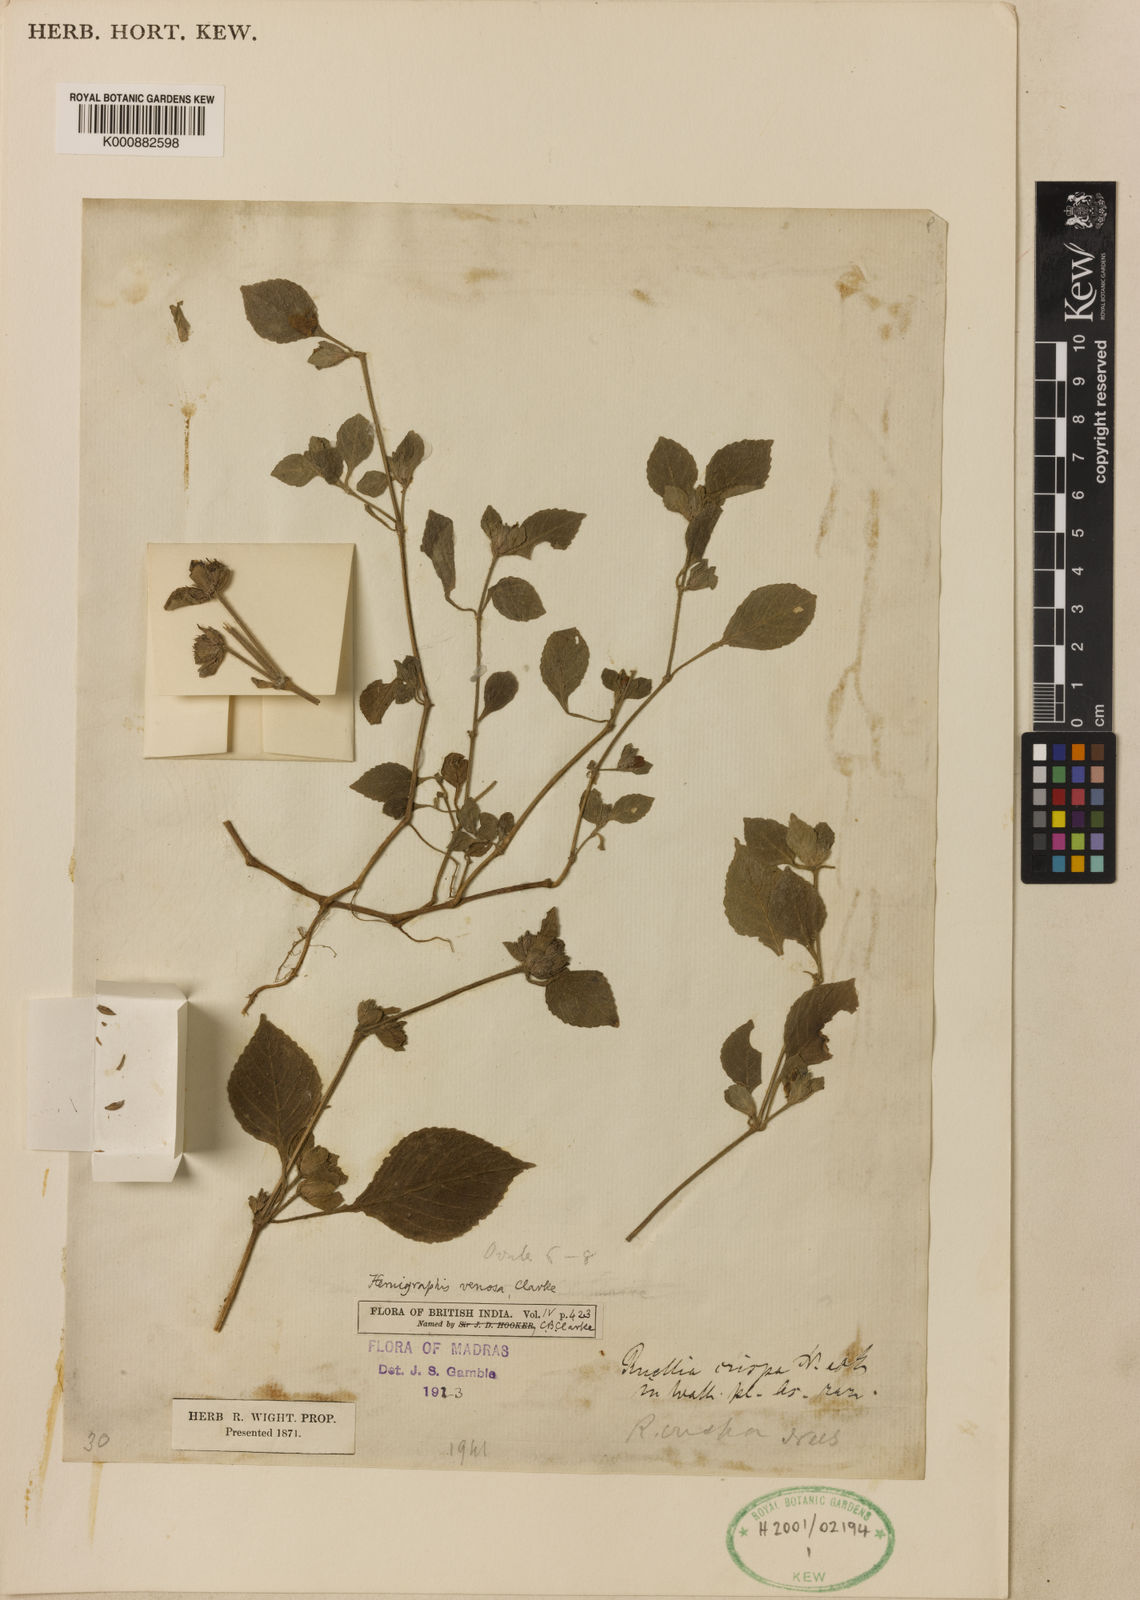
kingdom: Plantae
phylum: Tracheophyta
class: Magnoliopsida
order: Lamiales
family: Acanthaceae
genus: Strobilanthes
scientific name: Strobilanthes venosa
